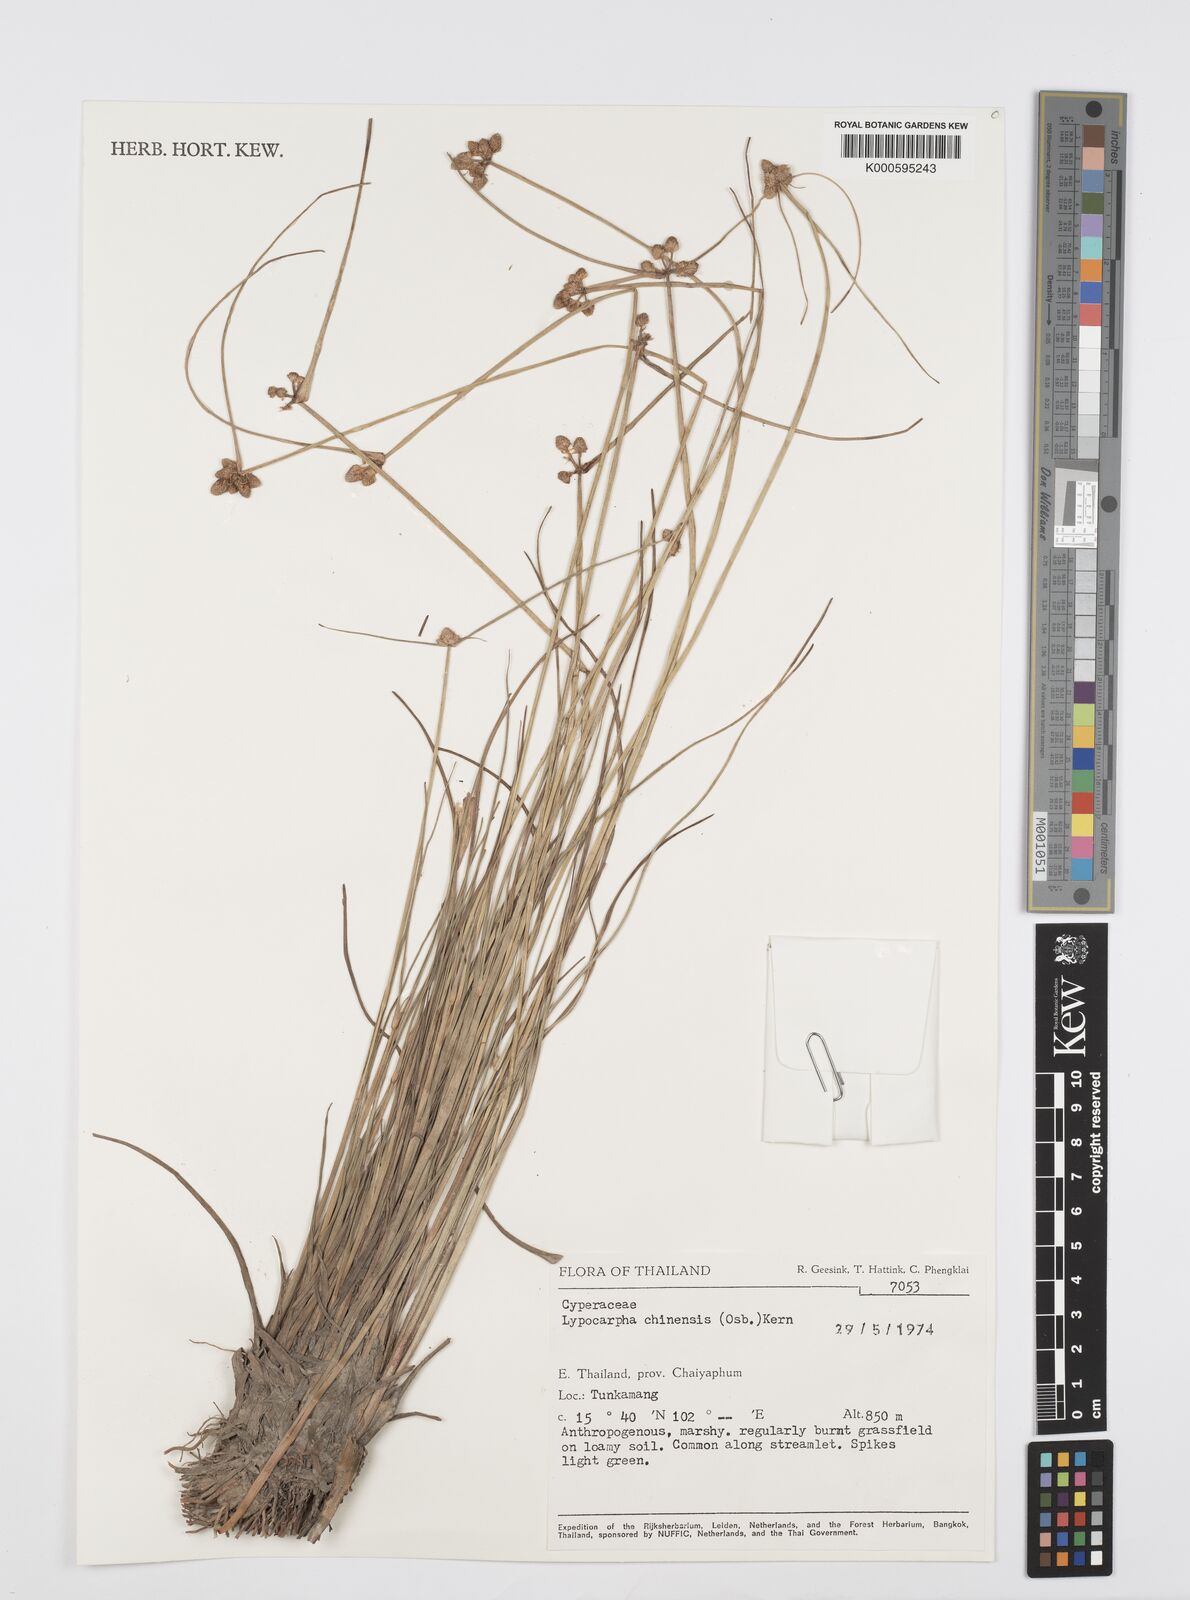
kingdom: Plantae
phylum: Tracheophyta
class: Liliopsida
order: Poales
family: Cyperaceae
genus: Cyperus
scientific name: Cyperus albescens
